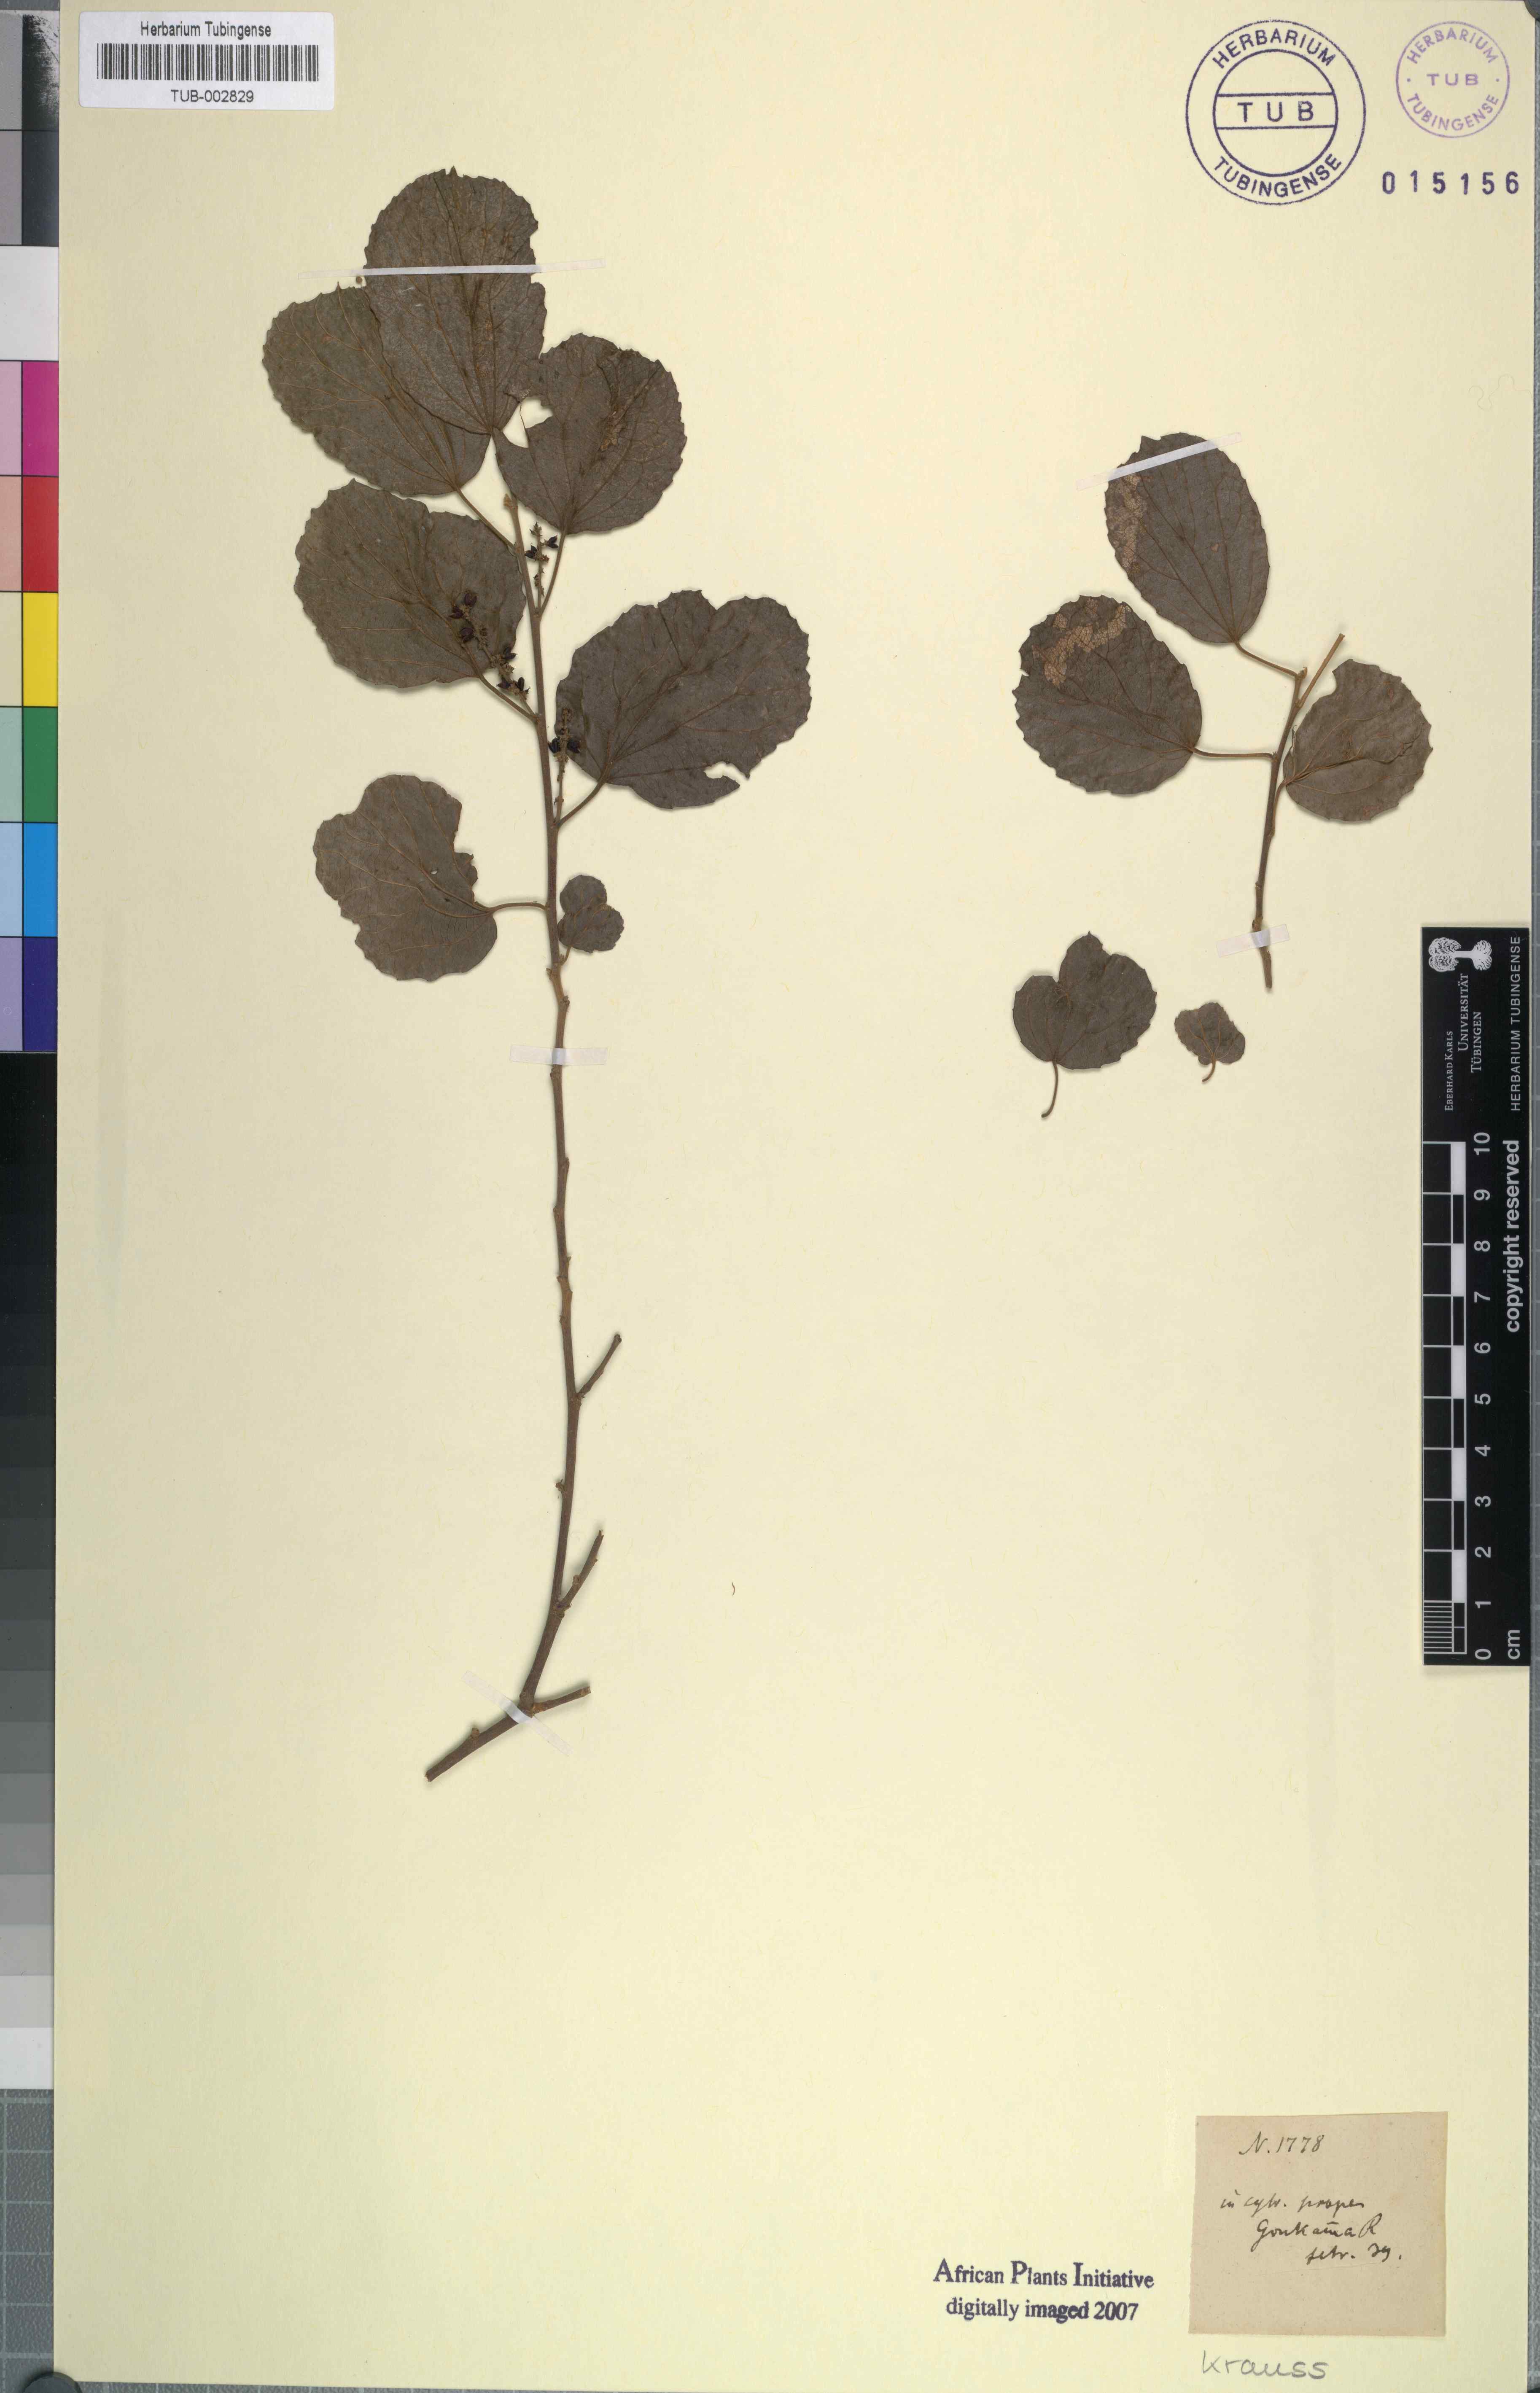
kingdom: Plantae
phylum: Tracheophyta
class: Magnoliopsida
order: Malpighiales
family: Salicaceae
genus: Trimeria
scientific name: Trimeria grandifolia
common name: Wild mulberry
